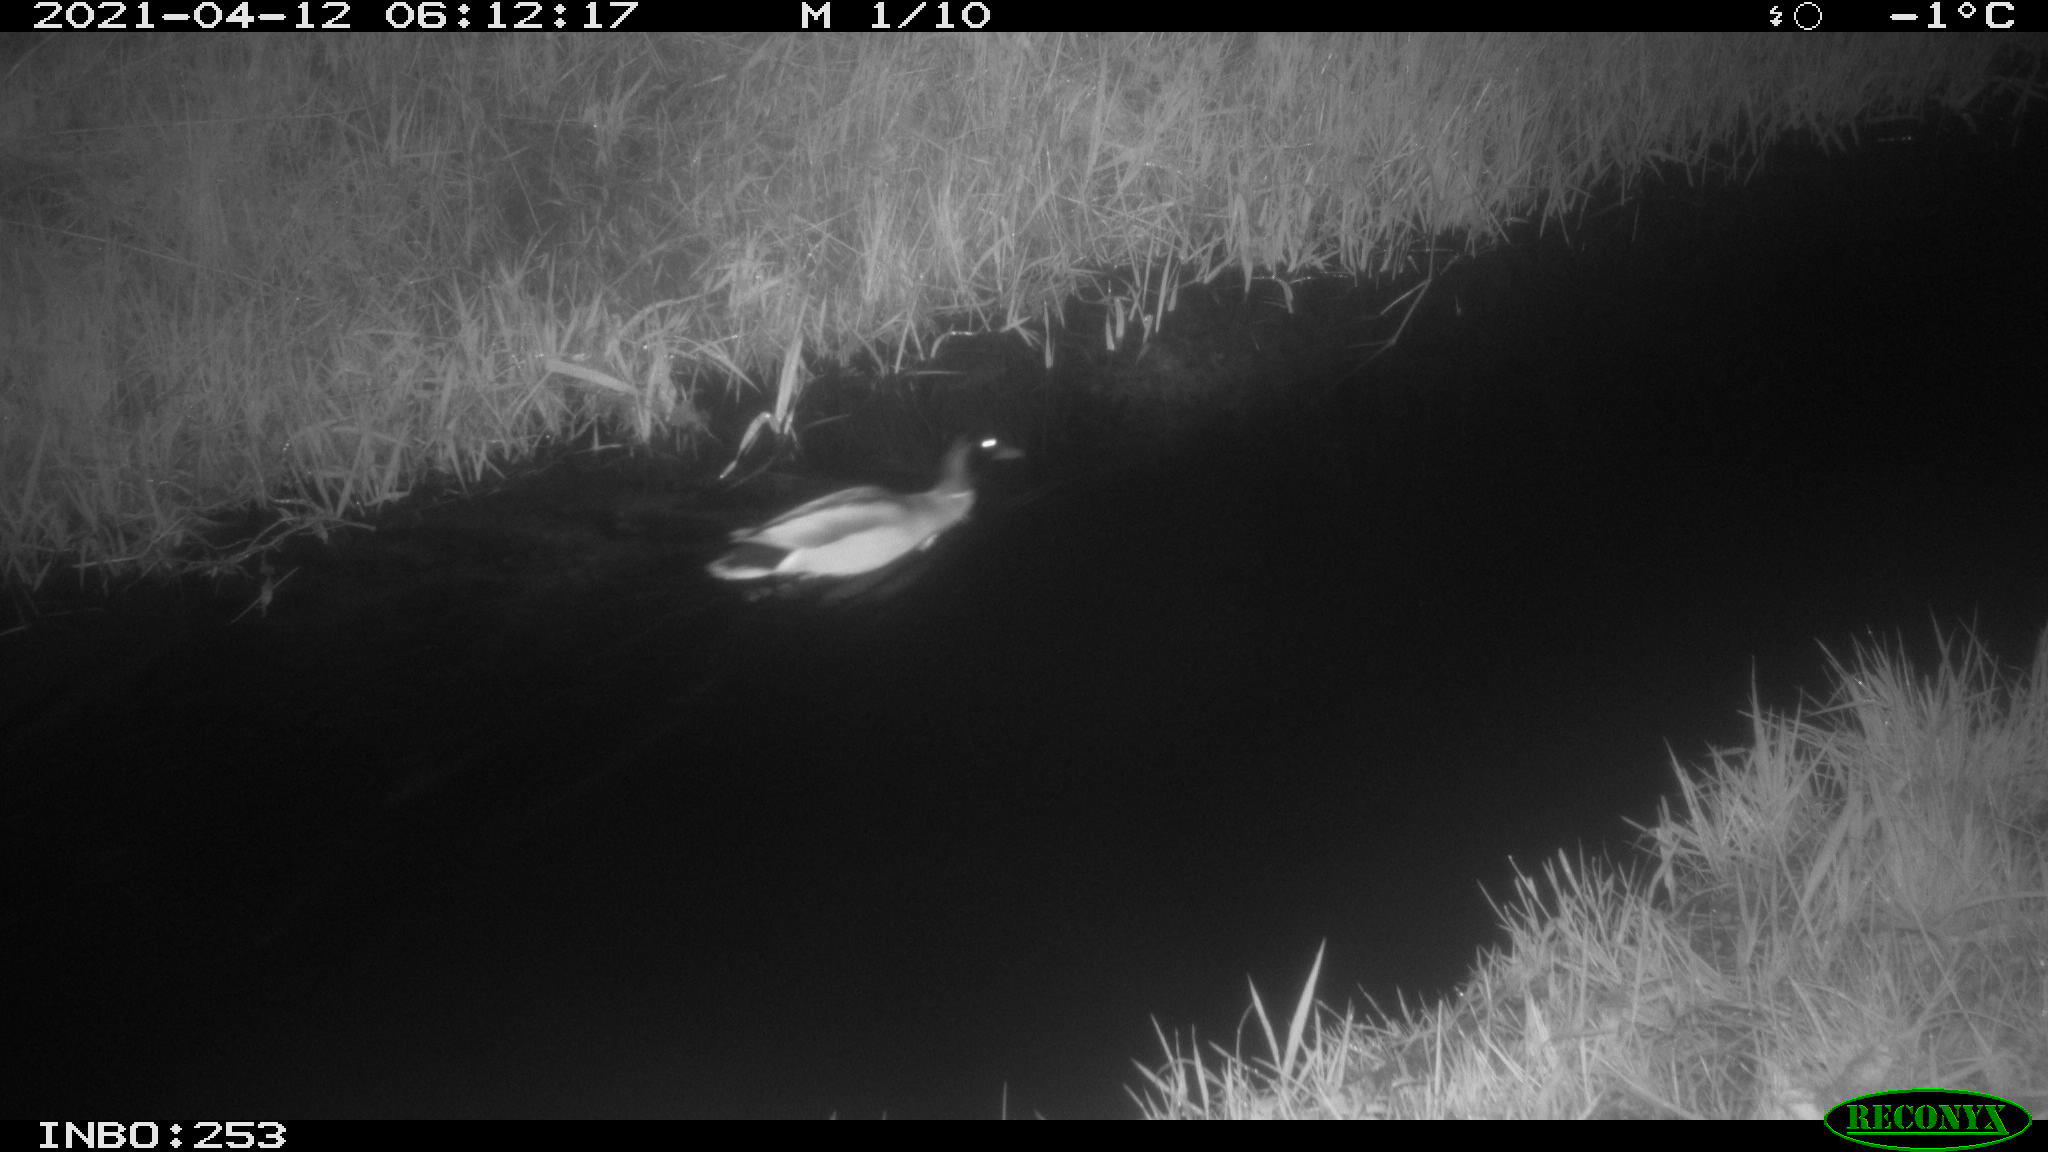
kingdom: Animalia
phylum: Chordata
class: Aves
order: Anseriformes
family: Anatidae
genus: Anas
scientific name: Anas platyrhynchos
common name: Mallard
